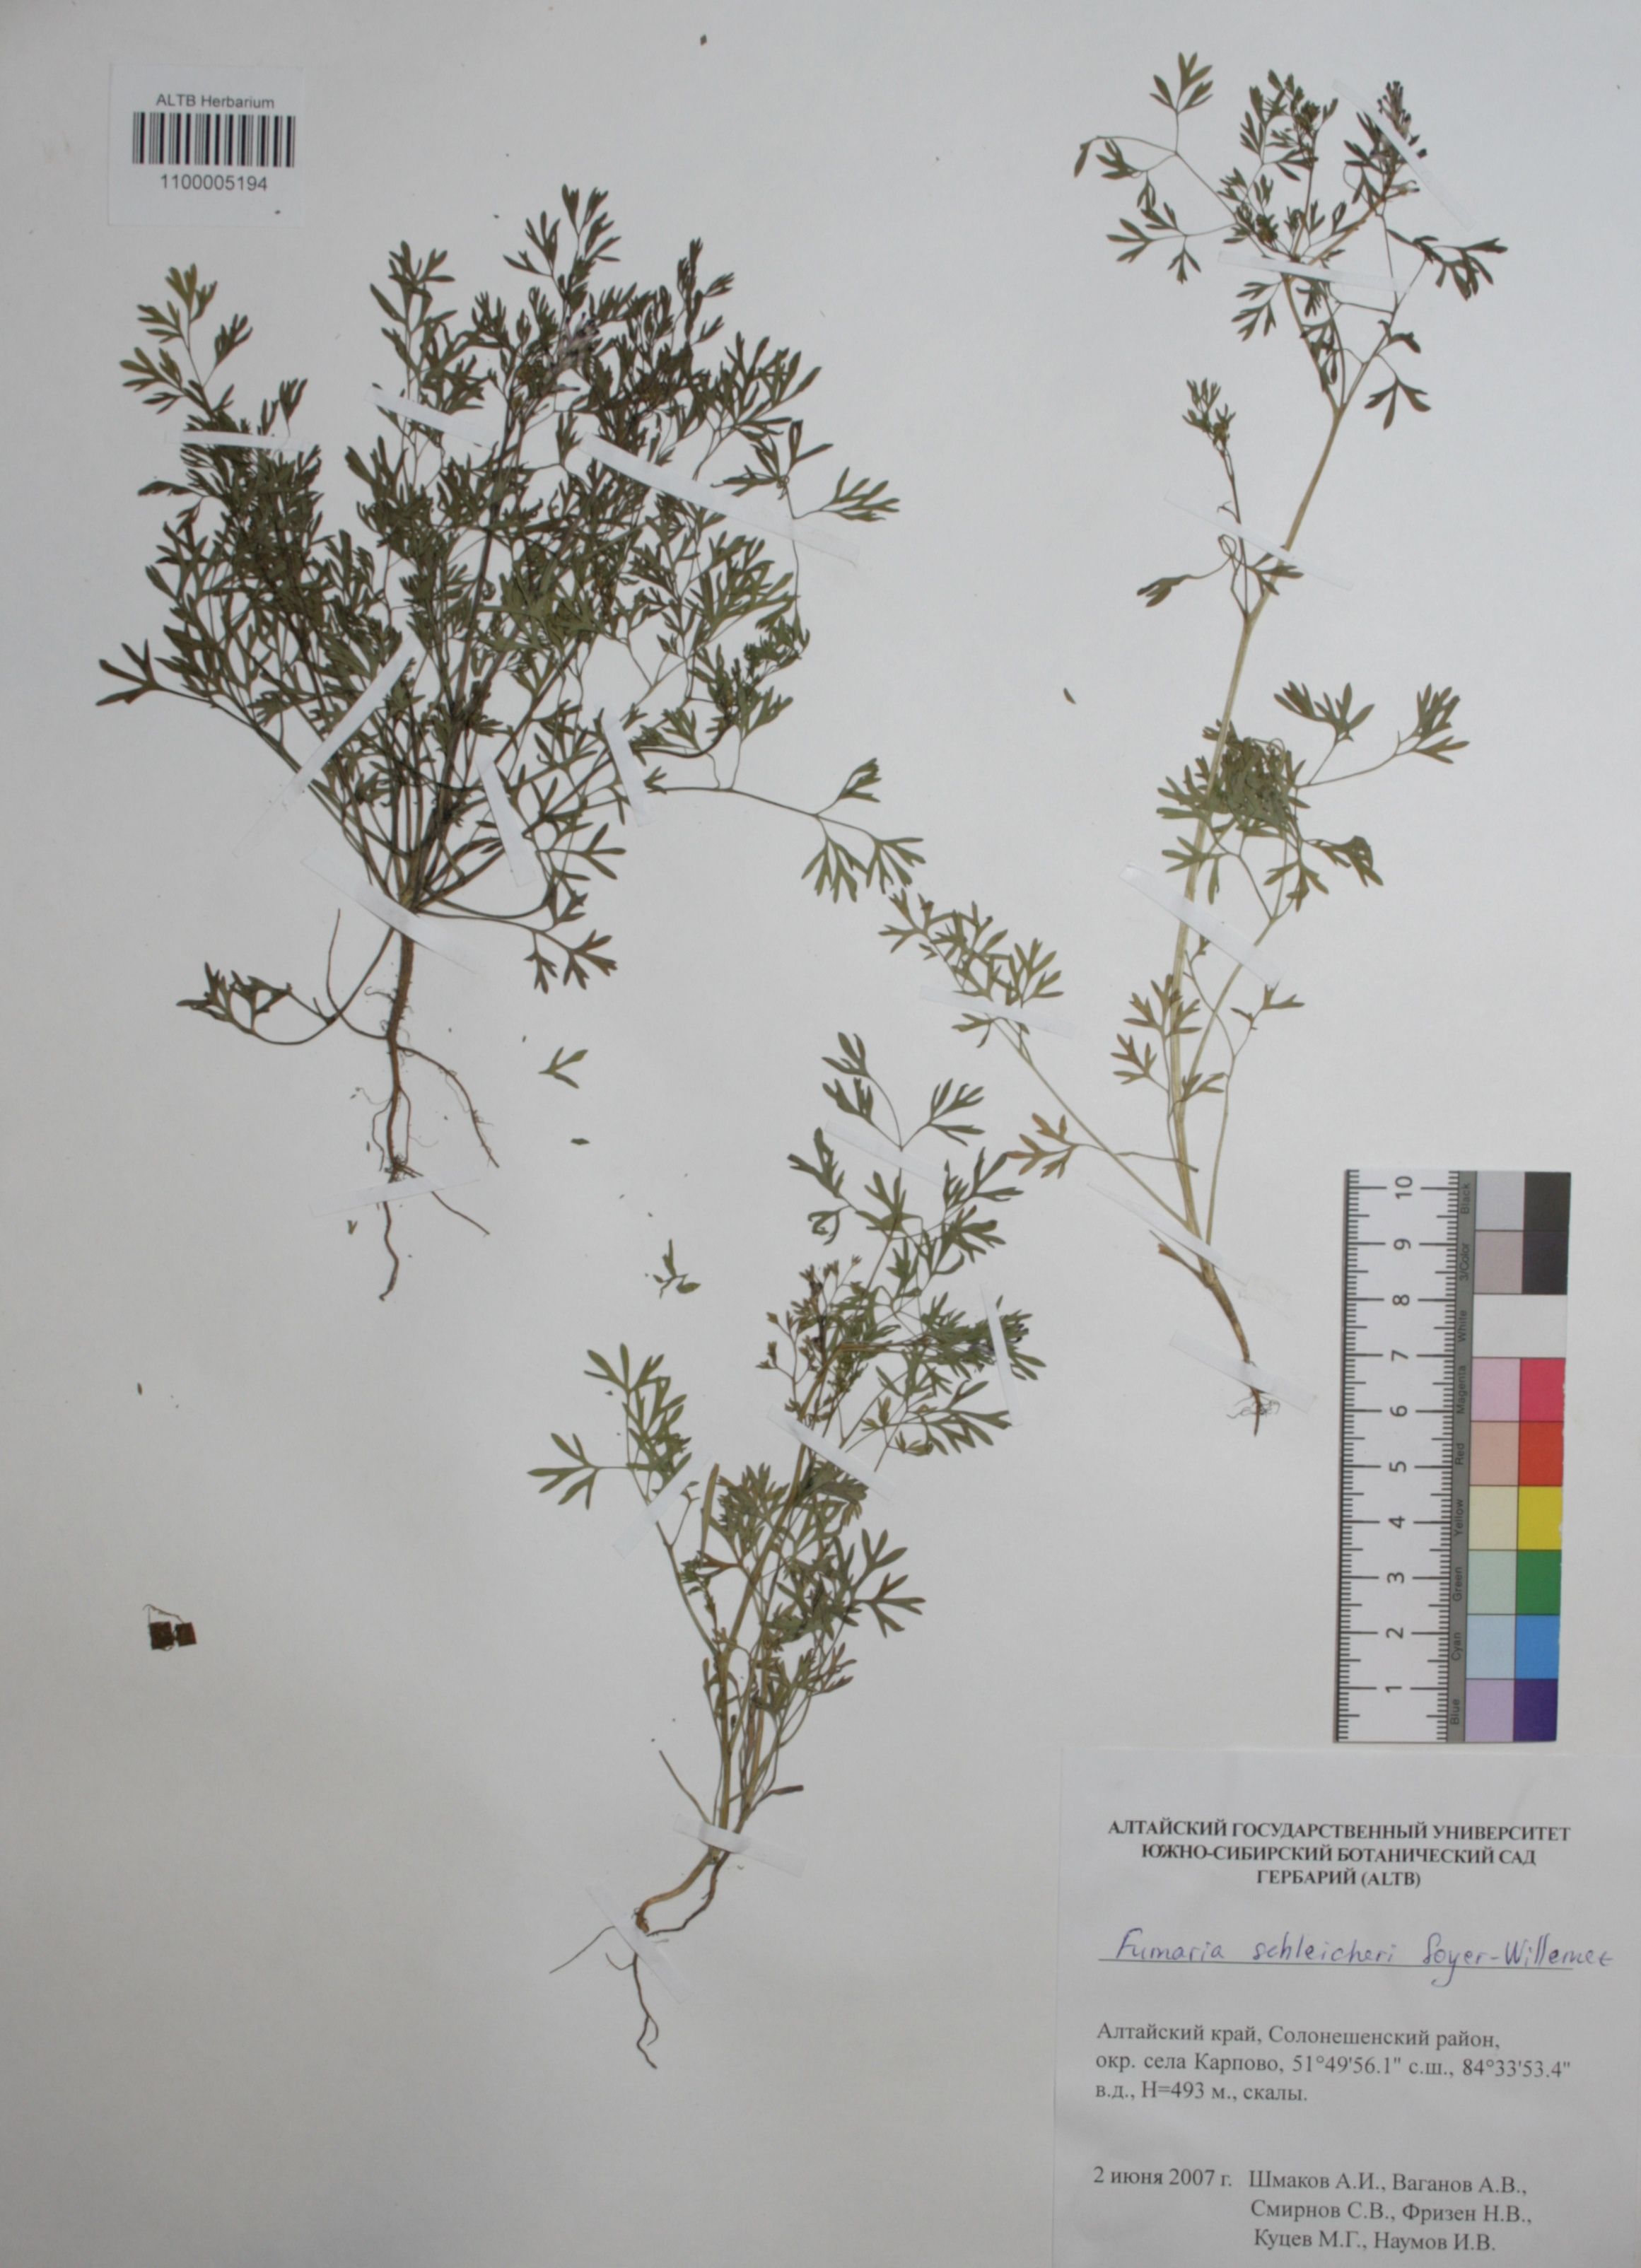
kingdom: Plantae
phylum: Tracheophyta
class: Magnoliopsida
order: Ranunculales
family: Papaveraceae
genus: Fumaria
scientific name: Fumaria schleicheri
